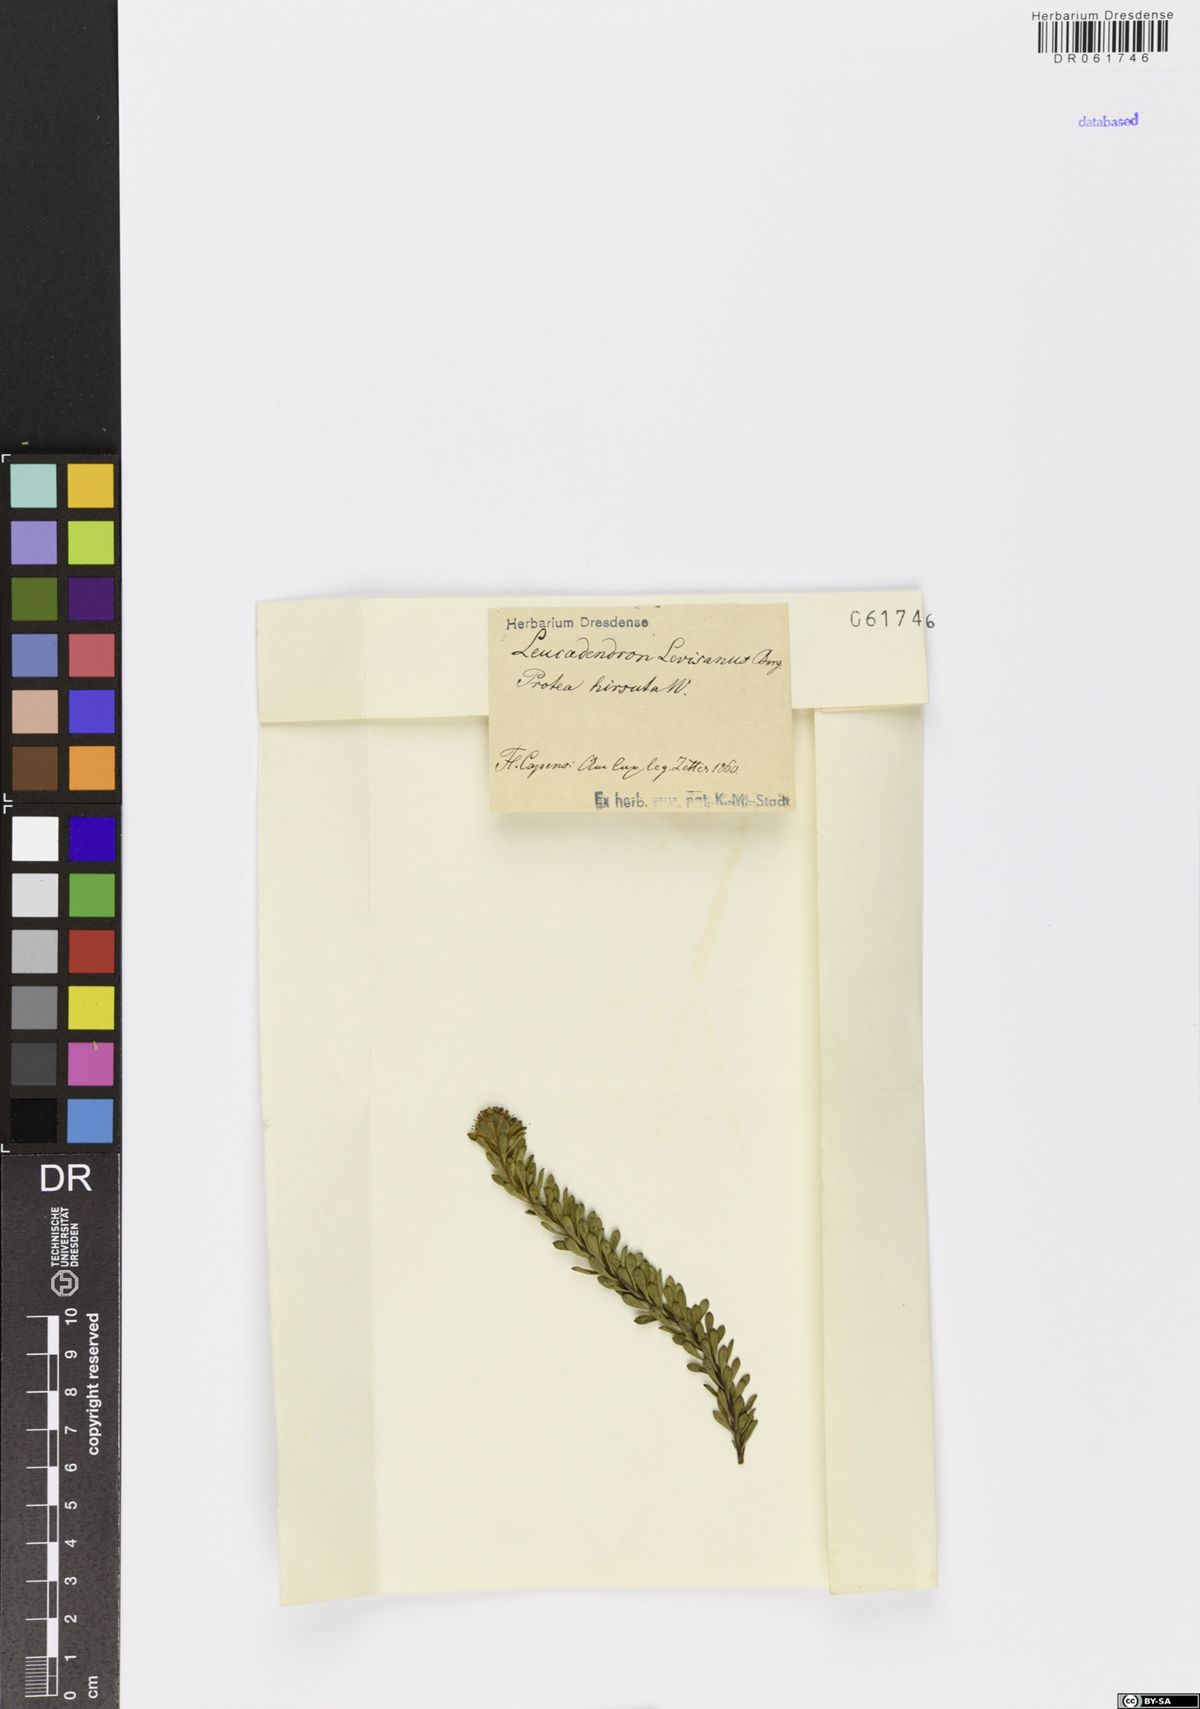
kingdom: Plantae
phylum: Tracheophyta
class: Magnoliopsida
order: Proteales
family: Proteaceae
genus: Leucadendron
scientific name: Leucadendron levisanus
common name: Cape flats conebush
